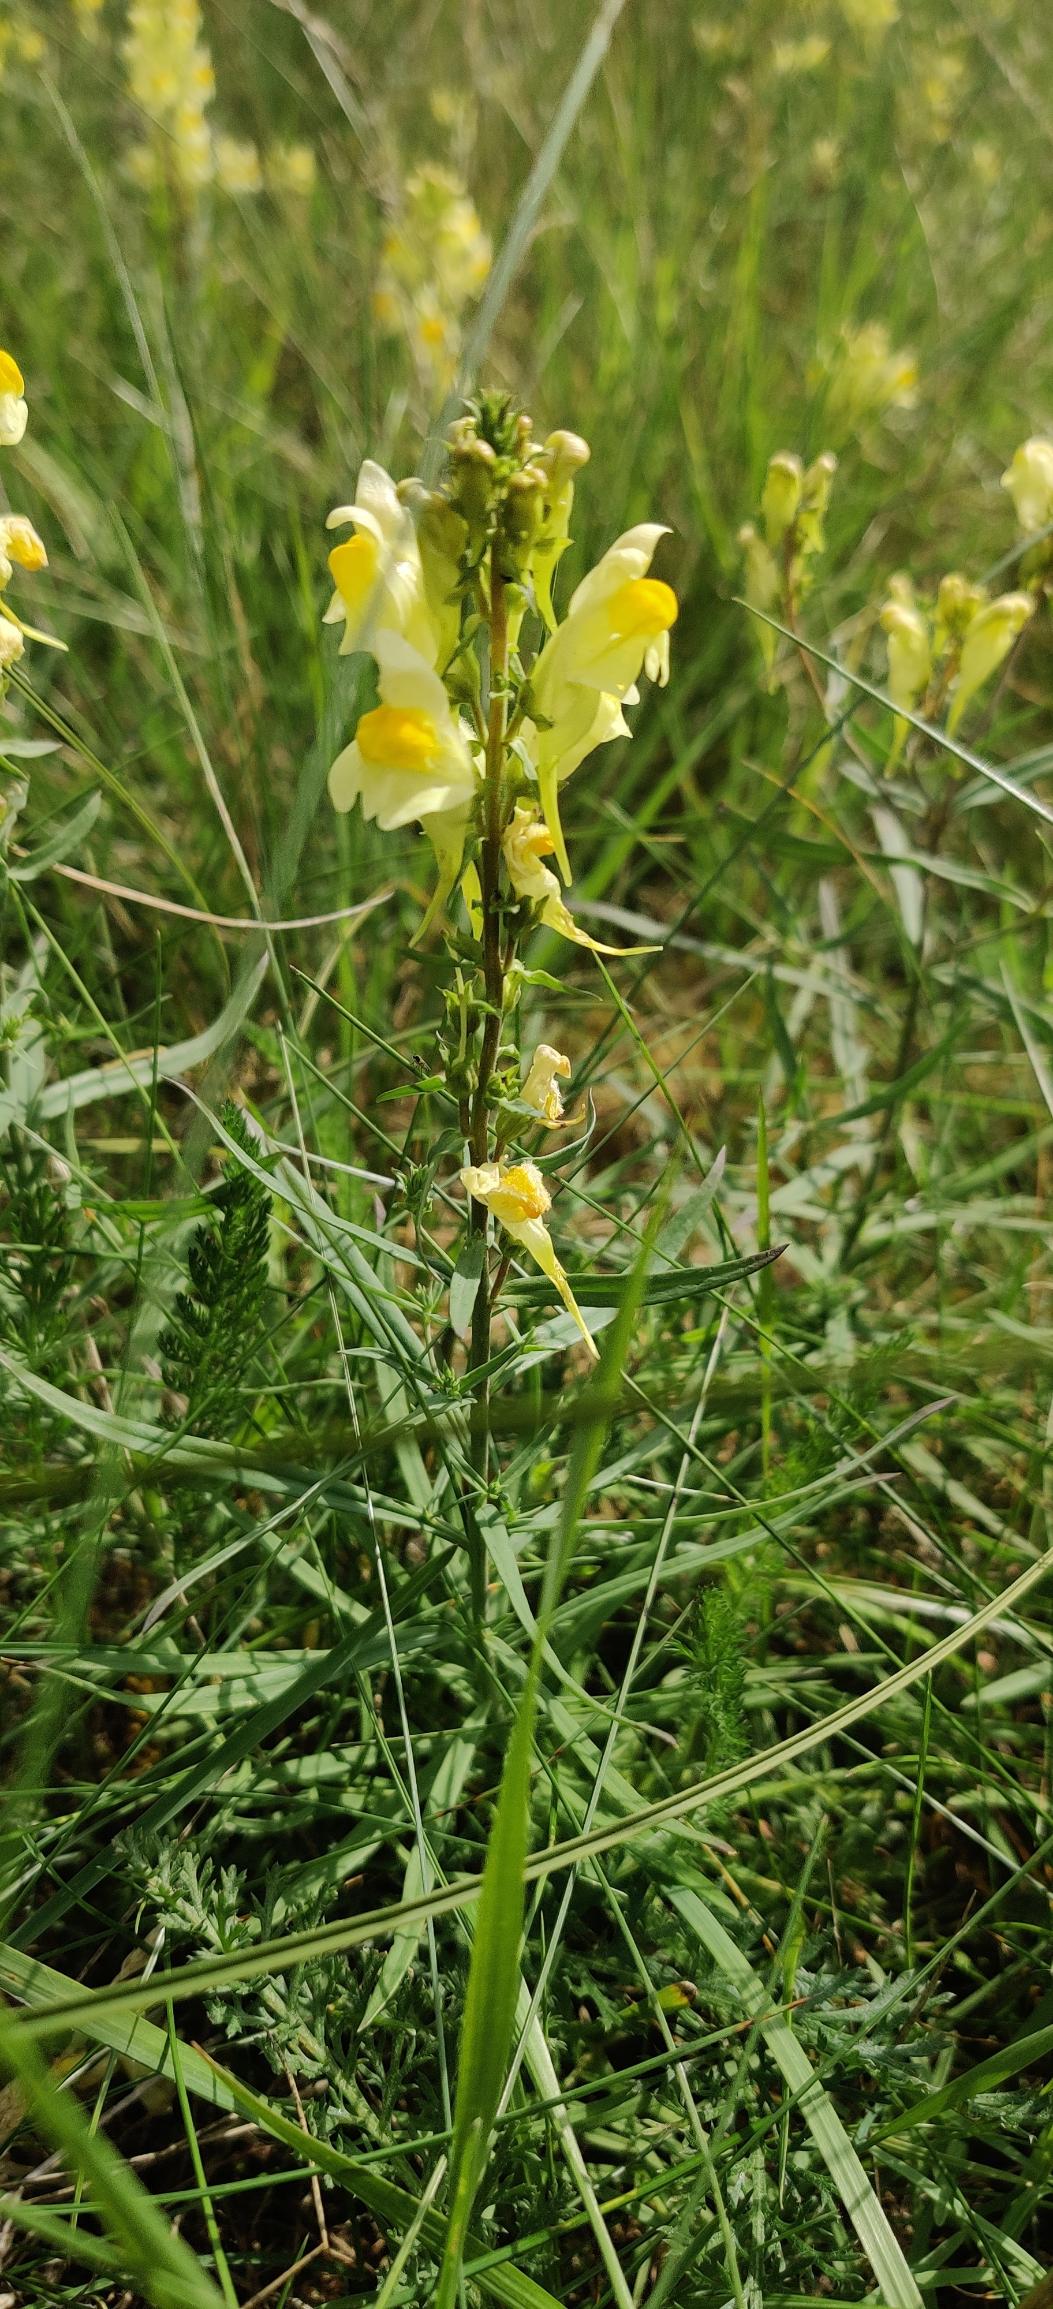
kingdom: Plantae
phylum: Tracheophyta
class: Magnoliopsida
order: Lamiales
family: Plantaginaceae
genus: Linaria
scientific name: Linaria vulgaris
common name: Almindelig torskemund
